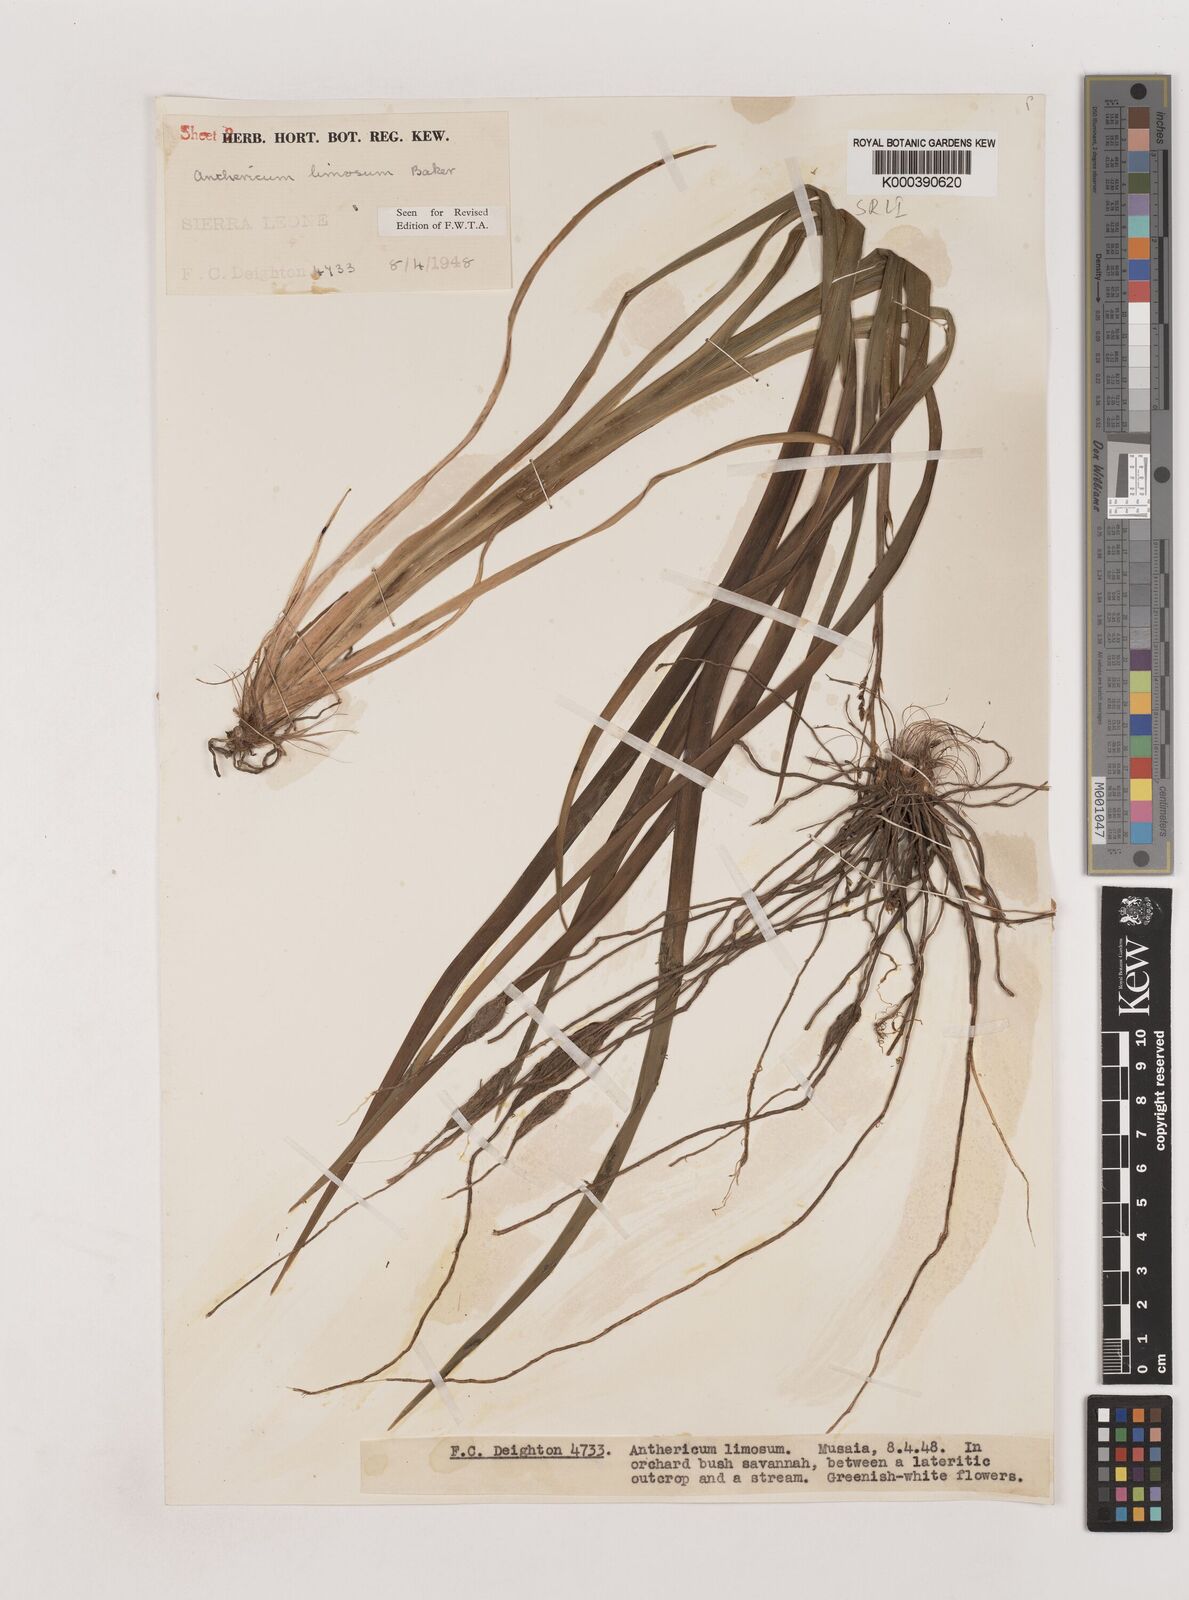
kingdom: Plantae
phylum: Tracheophyta
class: Liliopsida
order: Asparagales
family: Asparagaceae
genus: Chlorophytum
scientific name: Chlorophytum limosum
